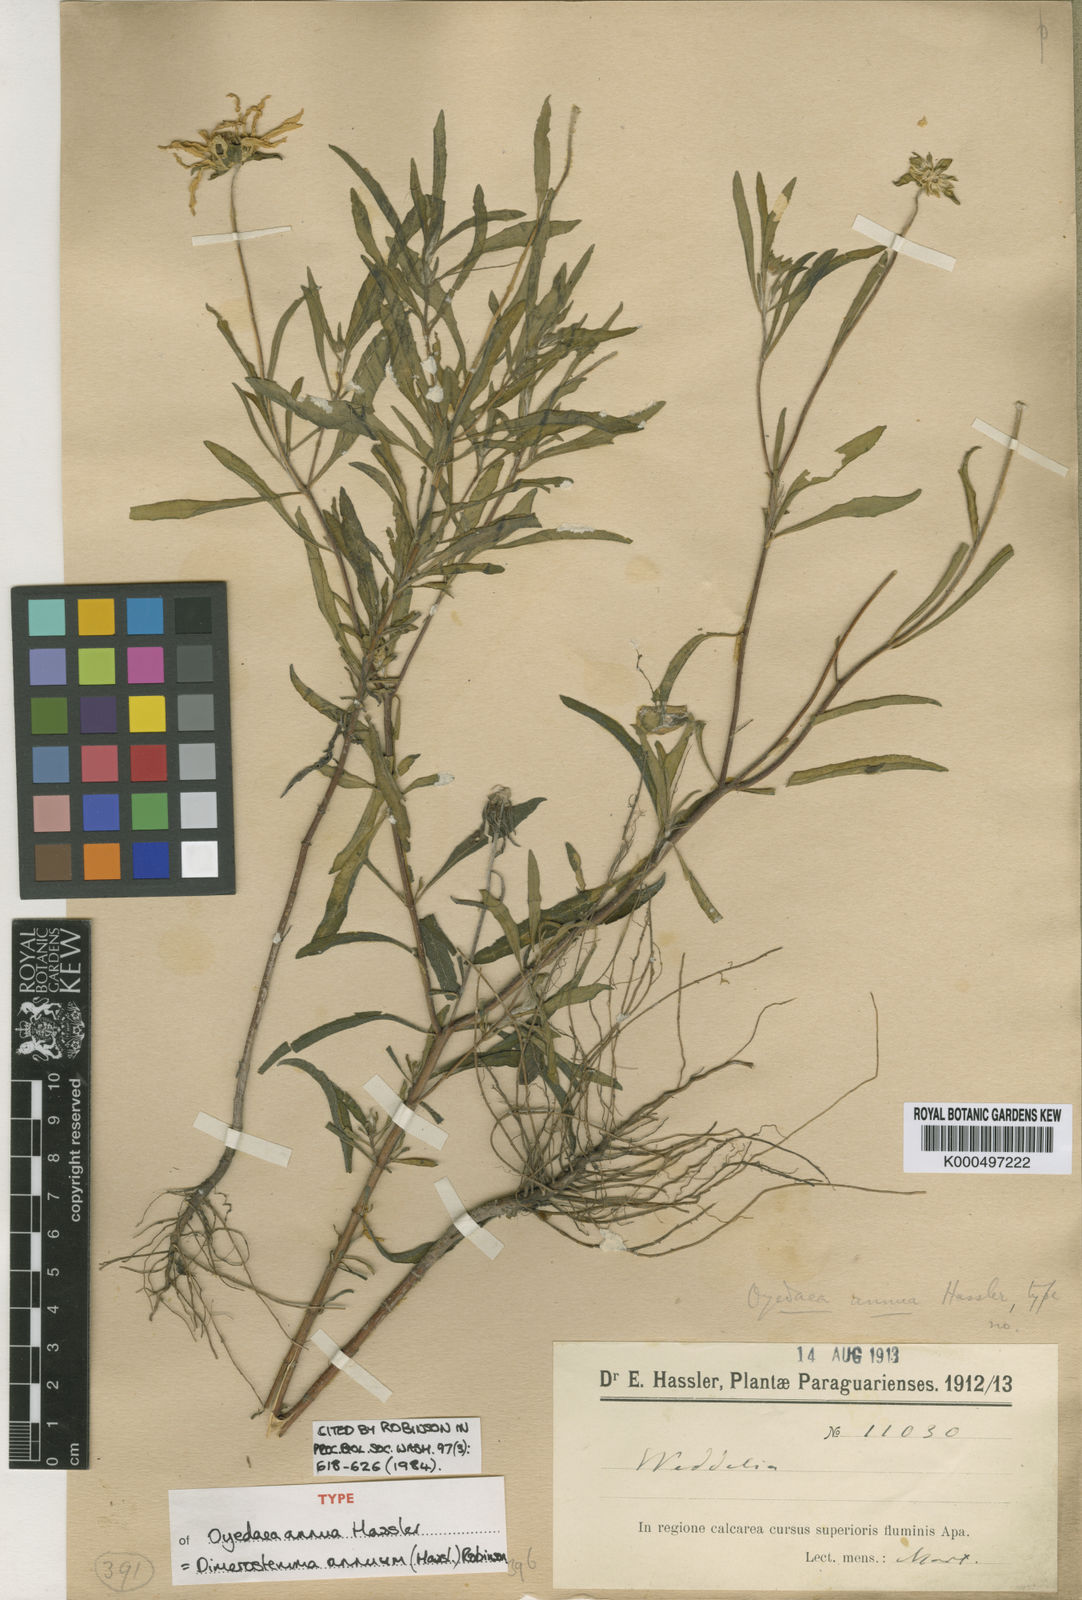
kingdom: Plantae
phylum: Tracheophyta
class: Magnoliopsida
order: Asterales
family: Asteraceae
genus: Dimerostemma
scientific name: Dimerostemma annuum
